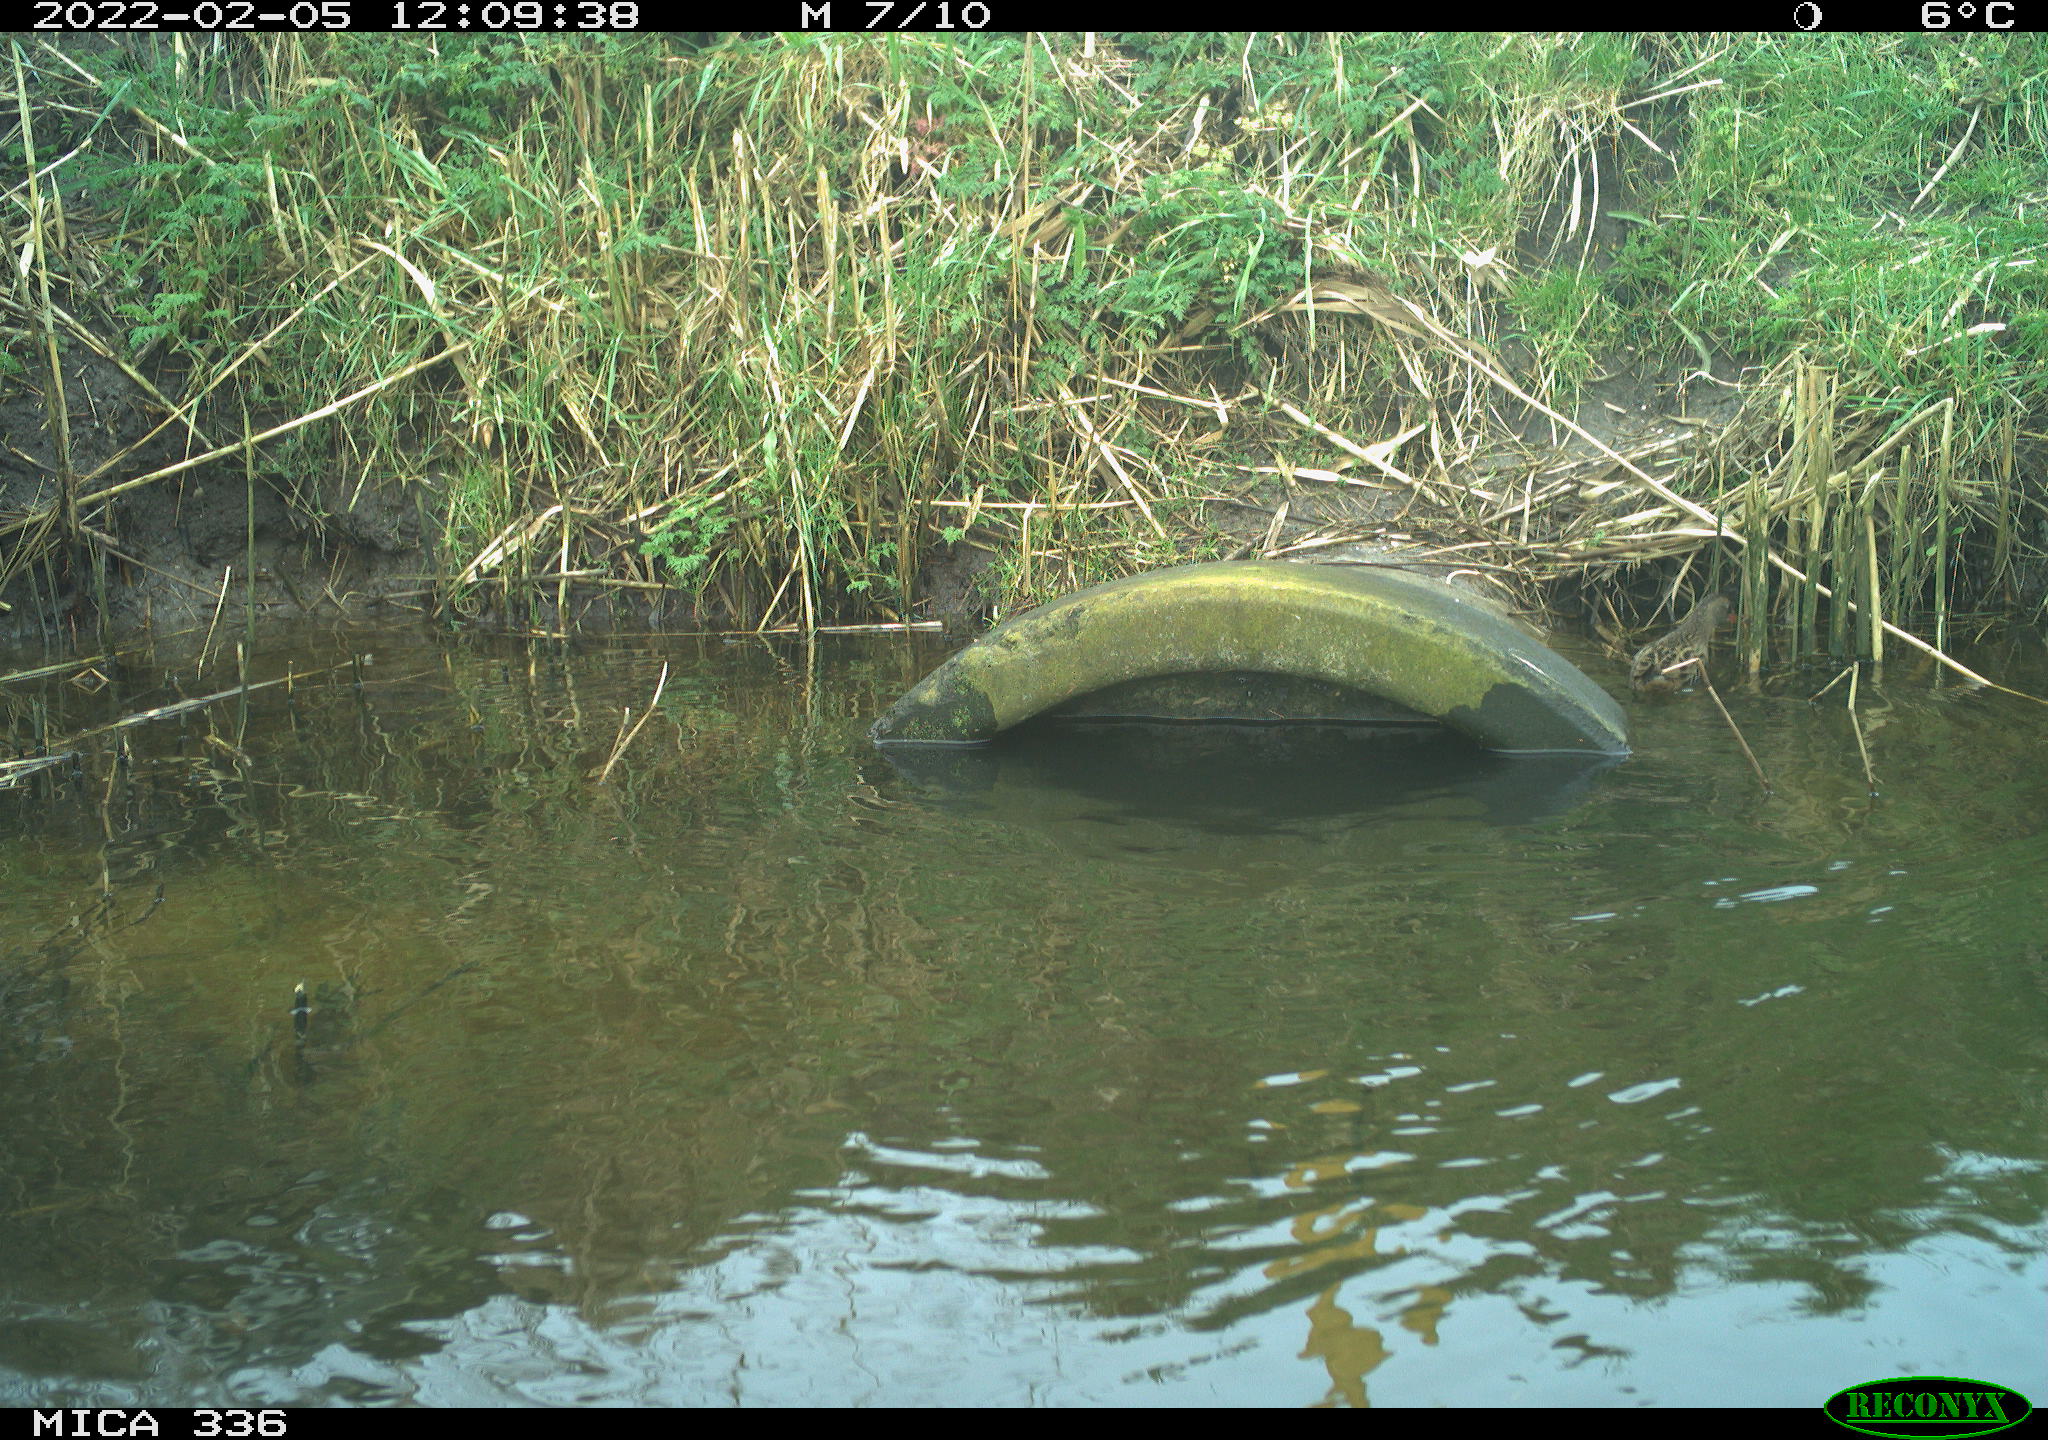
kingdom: Animalia
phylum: Chordata
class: Aves
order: Gruiformes
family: Rallidae
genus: Gallinula
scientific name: Gallinula chloropus
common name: Common moorhen
